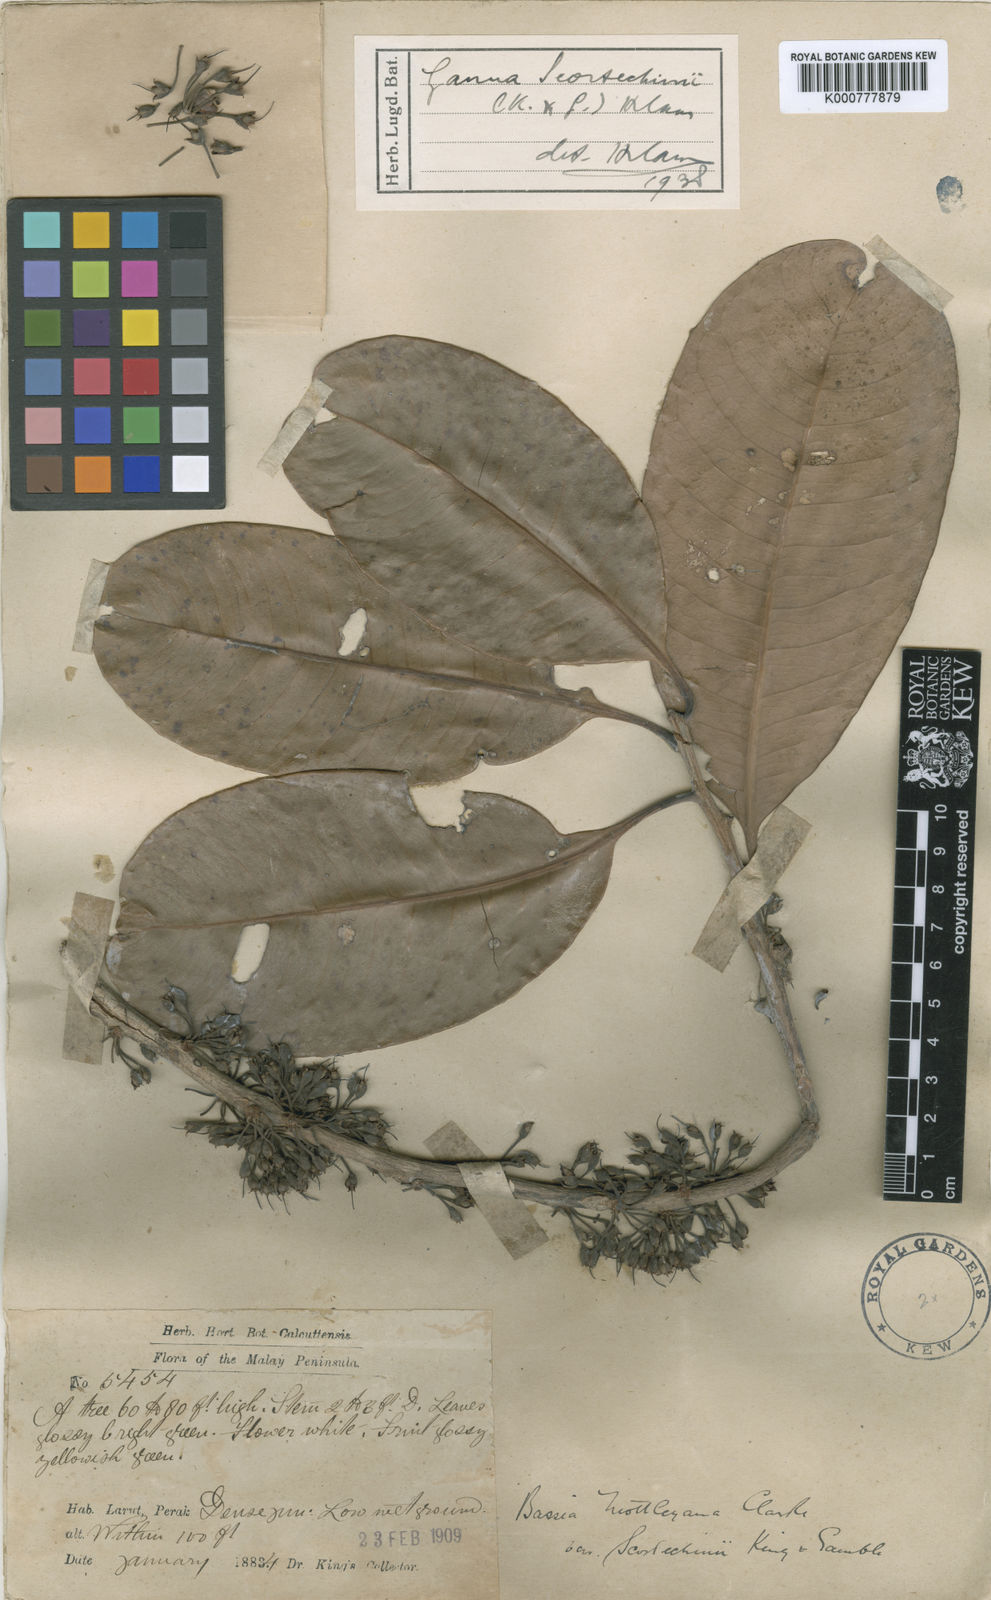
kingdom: Plantae
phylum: Tracheophyta
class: Magnoliopsida
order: Ericales
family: Sapotaceae
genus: Madhuca
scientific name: Madhuca motleyana
